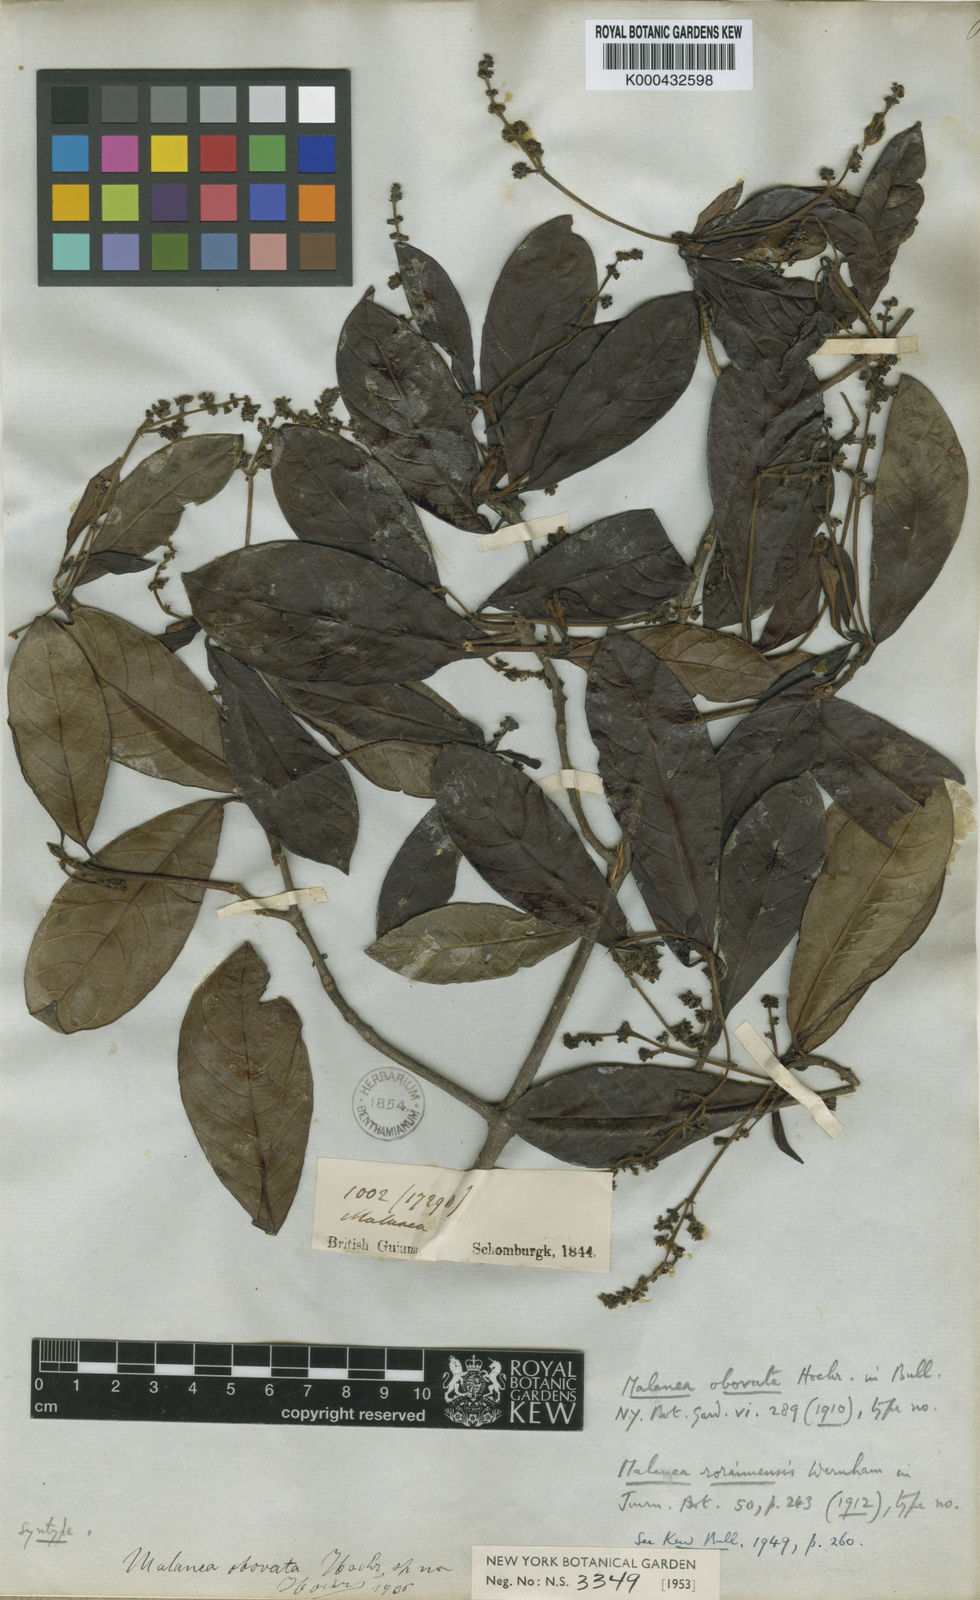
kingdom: Plantae
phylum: Tracheophyta
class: Magnoliopsida
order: Gentianales
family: Rubiaceae
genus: Malanea
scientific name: Malanea obovata
